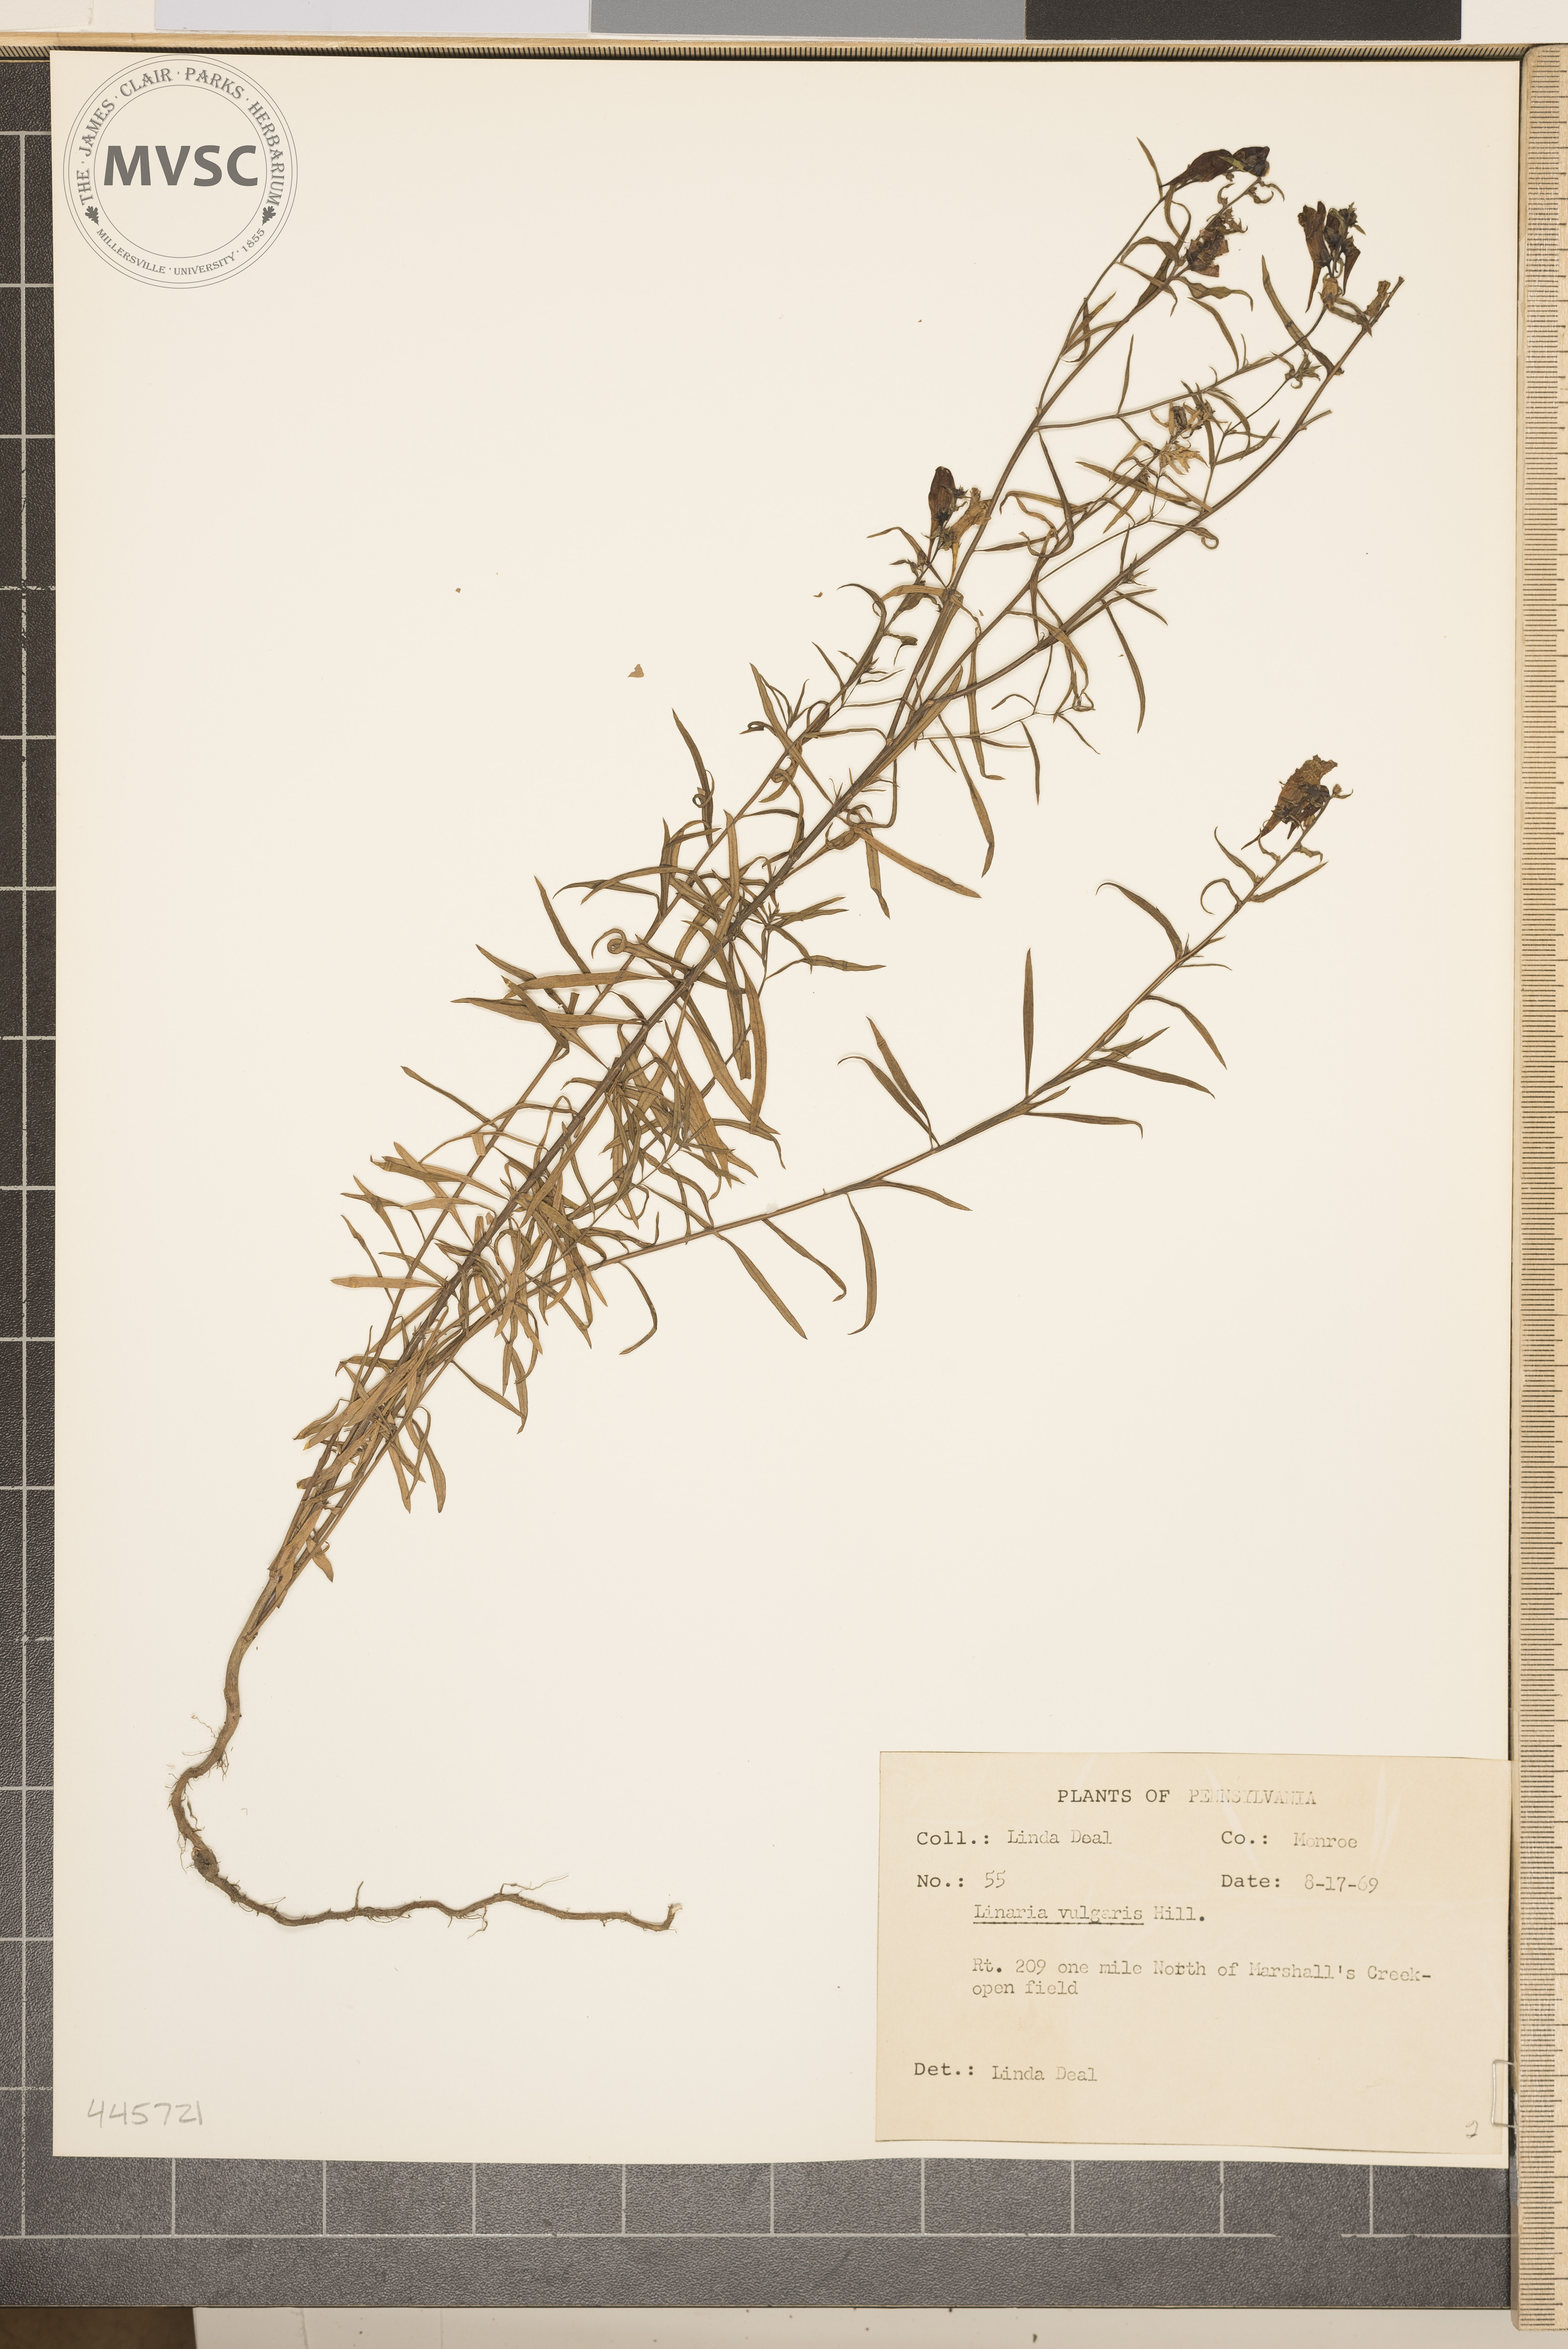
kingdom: Plantae
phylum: Tracheophyta
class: Magnoliopsida
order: Lamiales
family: Plantaginaceae
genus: Linaria
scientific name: Linaria vulgaris
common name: Butter and eggs
